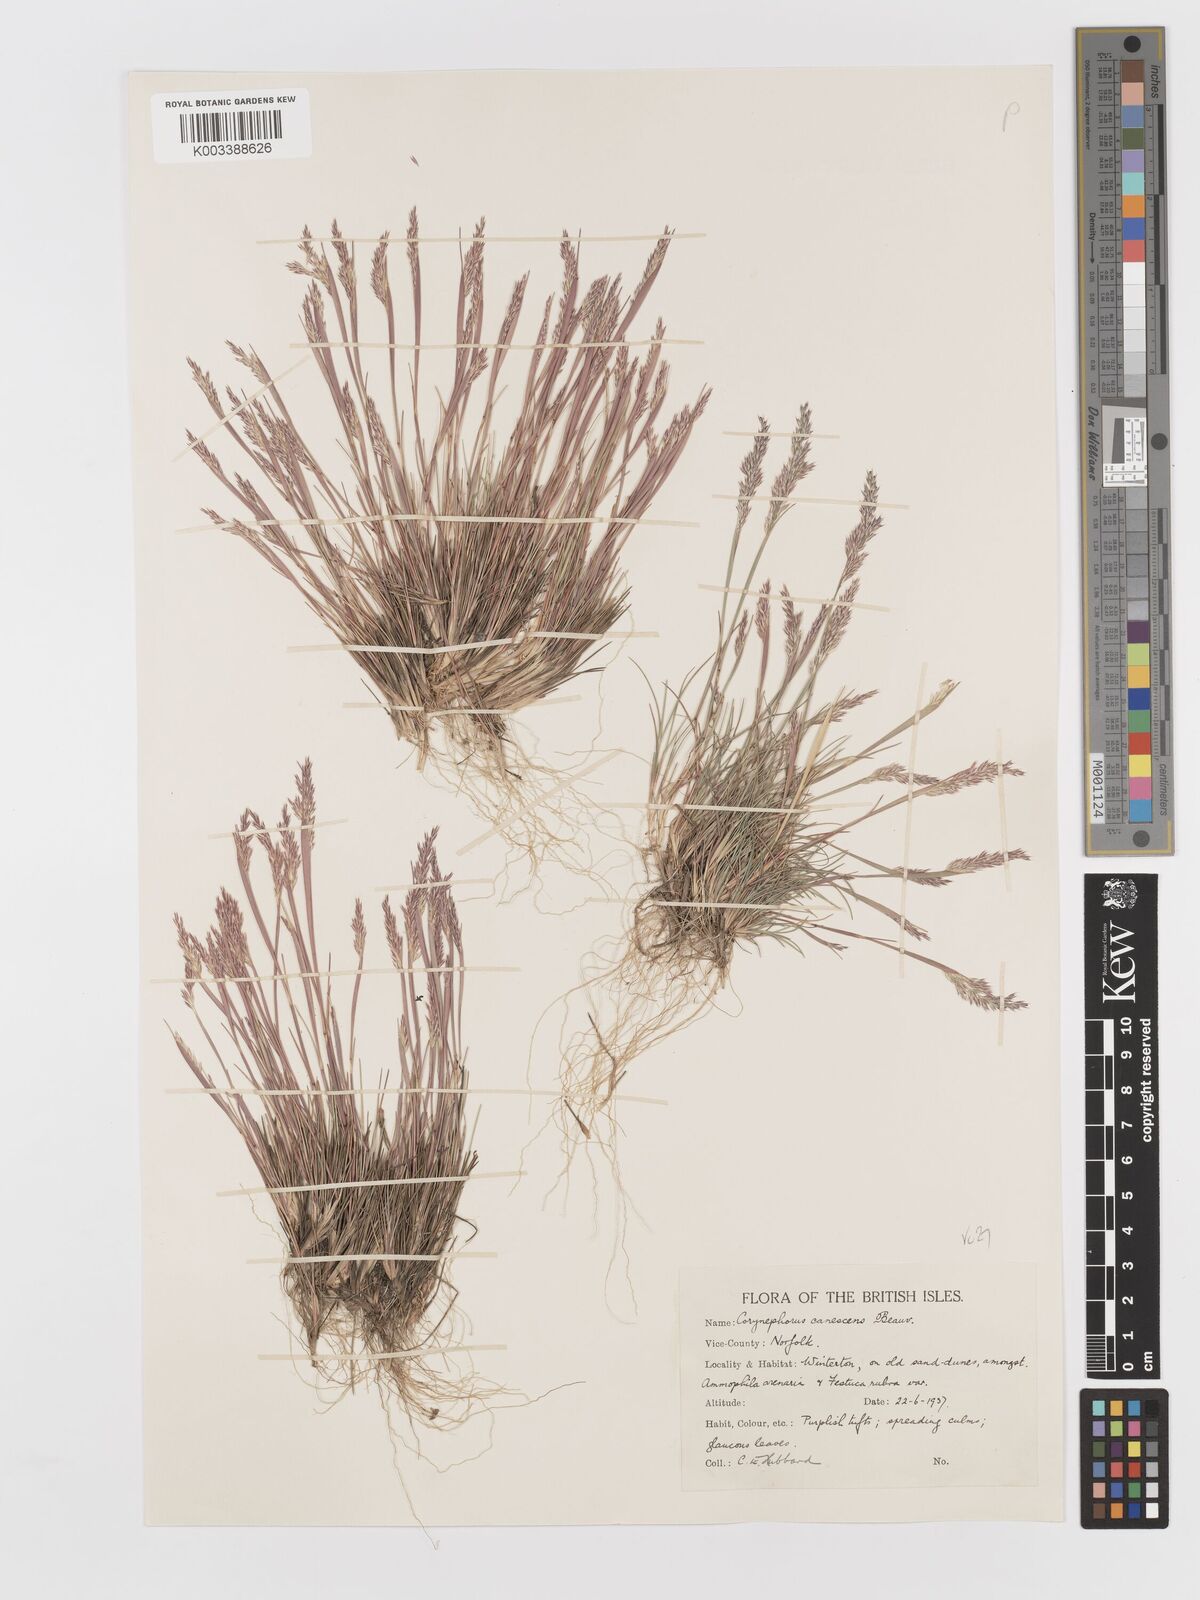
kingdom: Plantae
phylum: Tracheophyta
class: Liliopsida
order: Poales
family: Poaceae
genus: Corynephorus
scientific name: Corynephorus canescens
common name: Grey hair-grass
